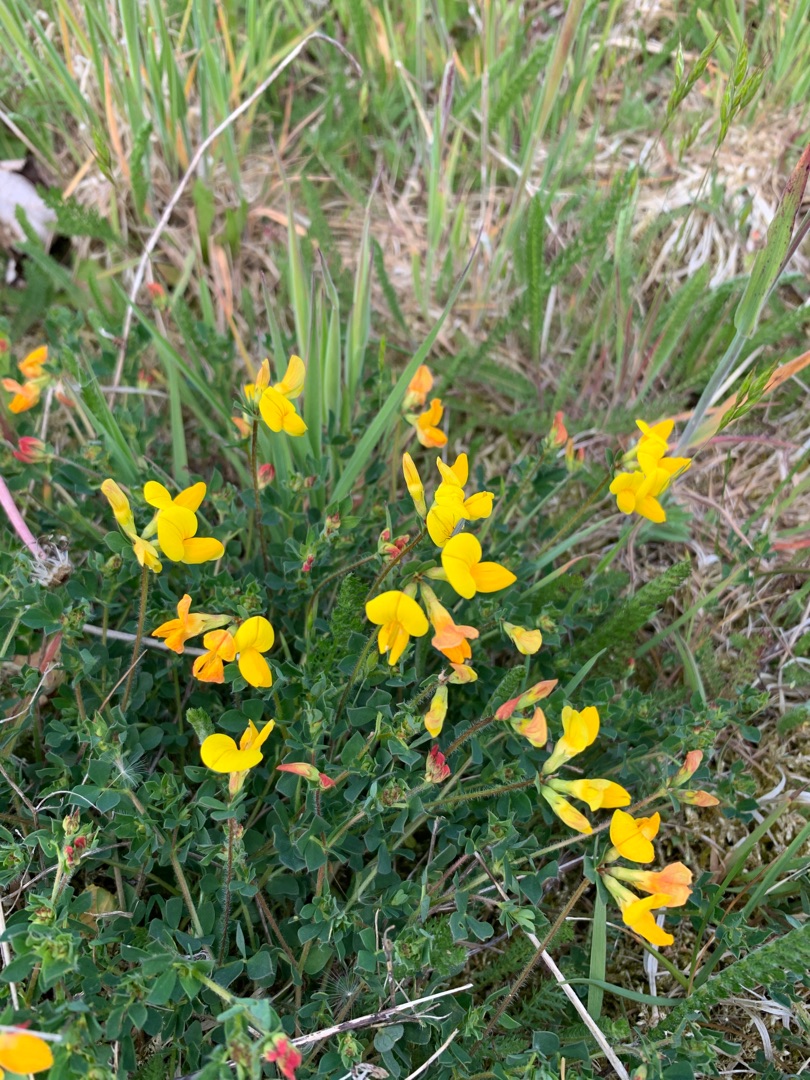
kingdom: Plantae
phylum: Tracheophyta
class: Magnoliopsida
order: Fabales
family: Fabaceae
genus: Lotus
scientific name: Lotus corniculatus
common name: Almindelig kællingetand
